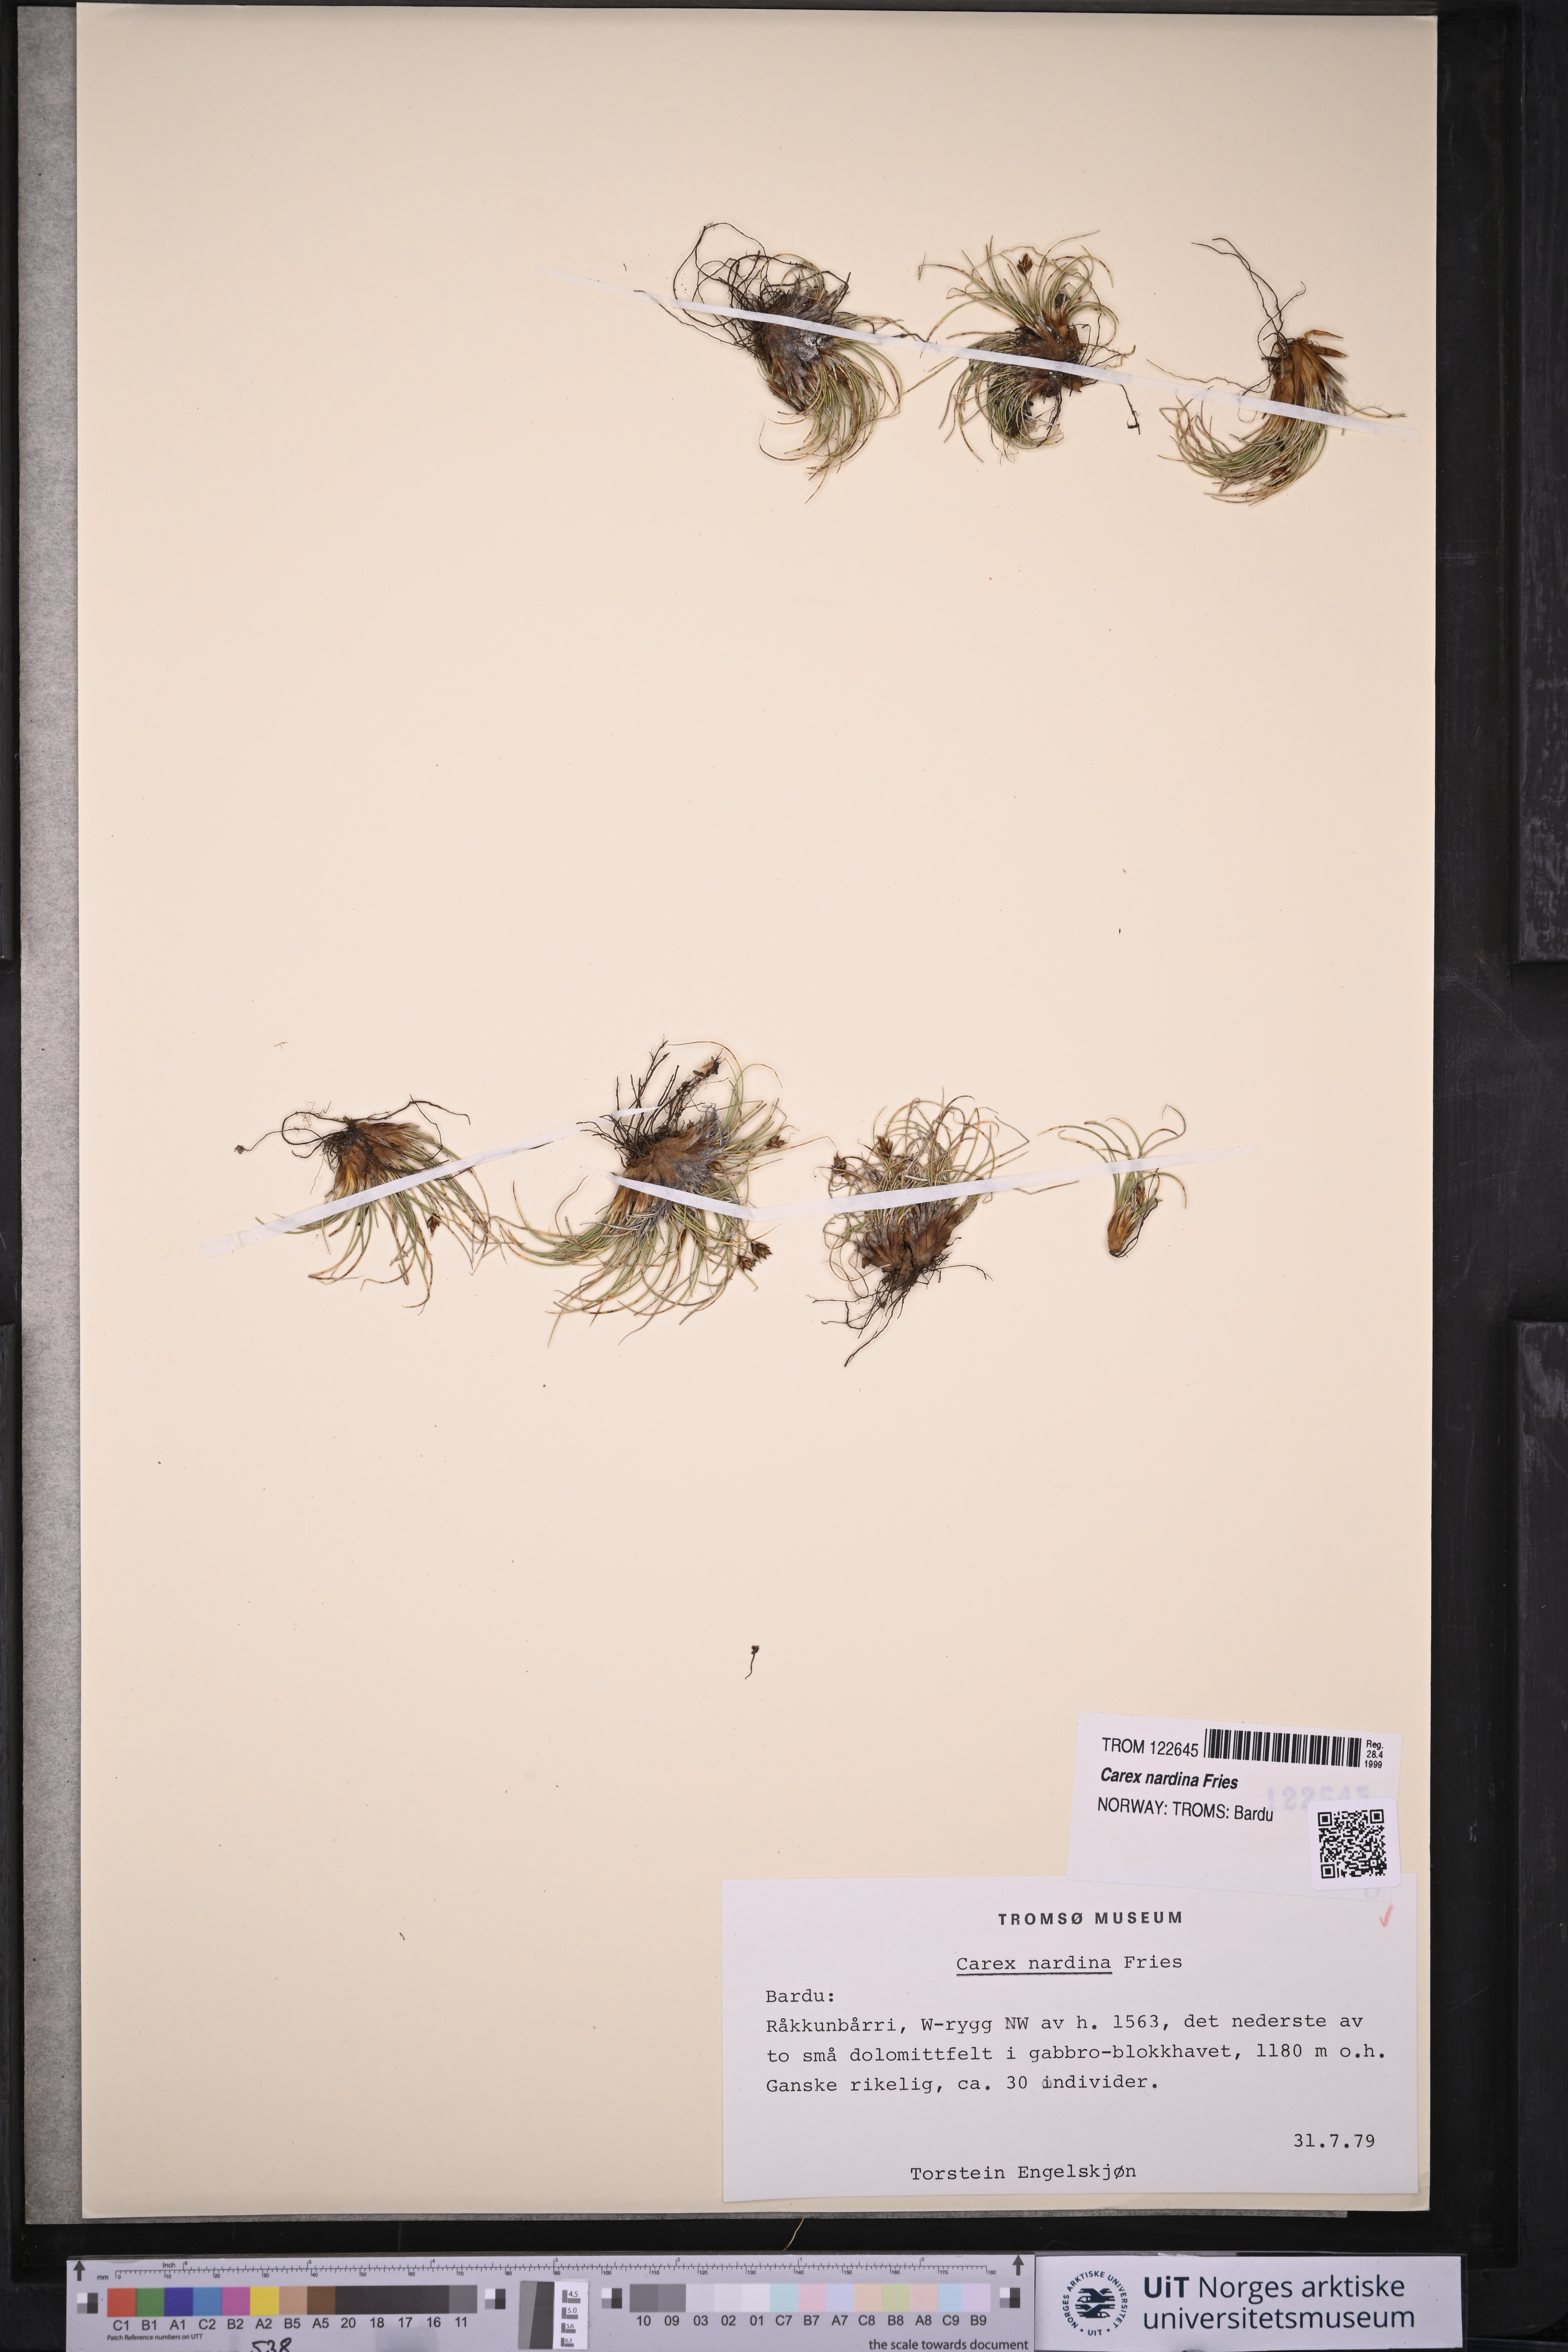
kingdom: Plantae
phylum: Tracheophyta
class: Liliopsida
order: Poales
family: Cyperaceae
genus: Carex
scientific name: Carex nardina
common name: Nard sedge
